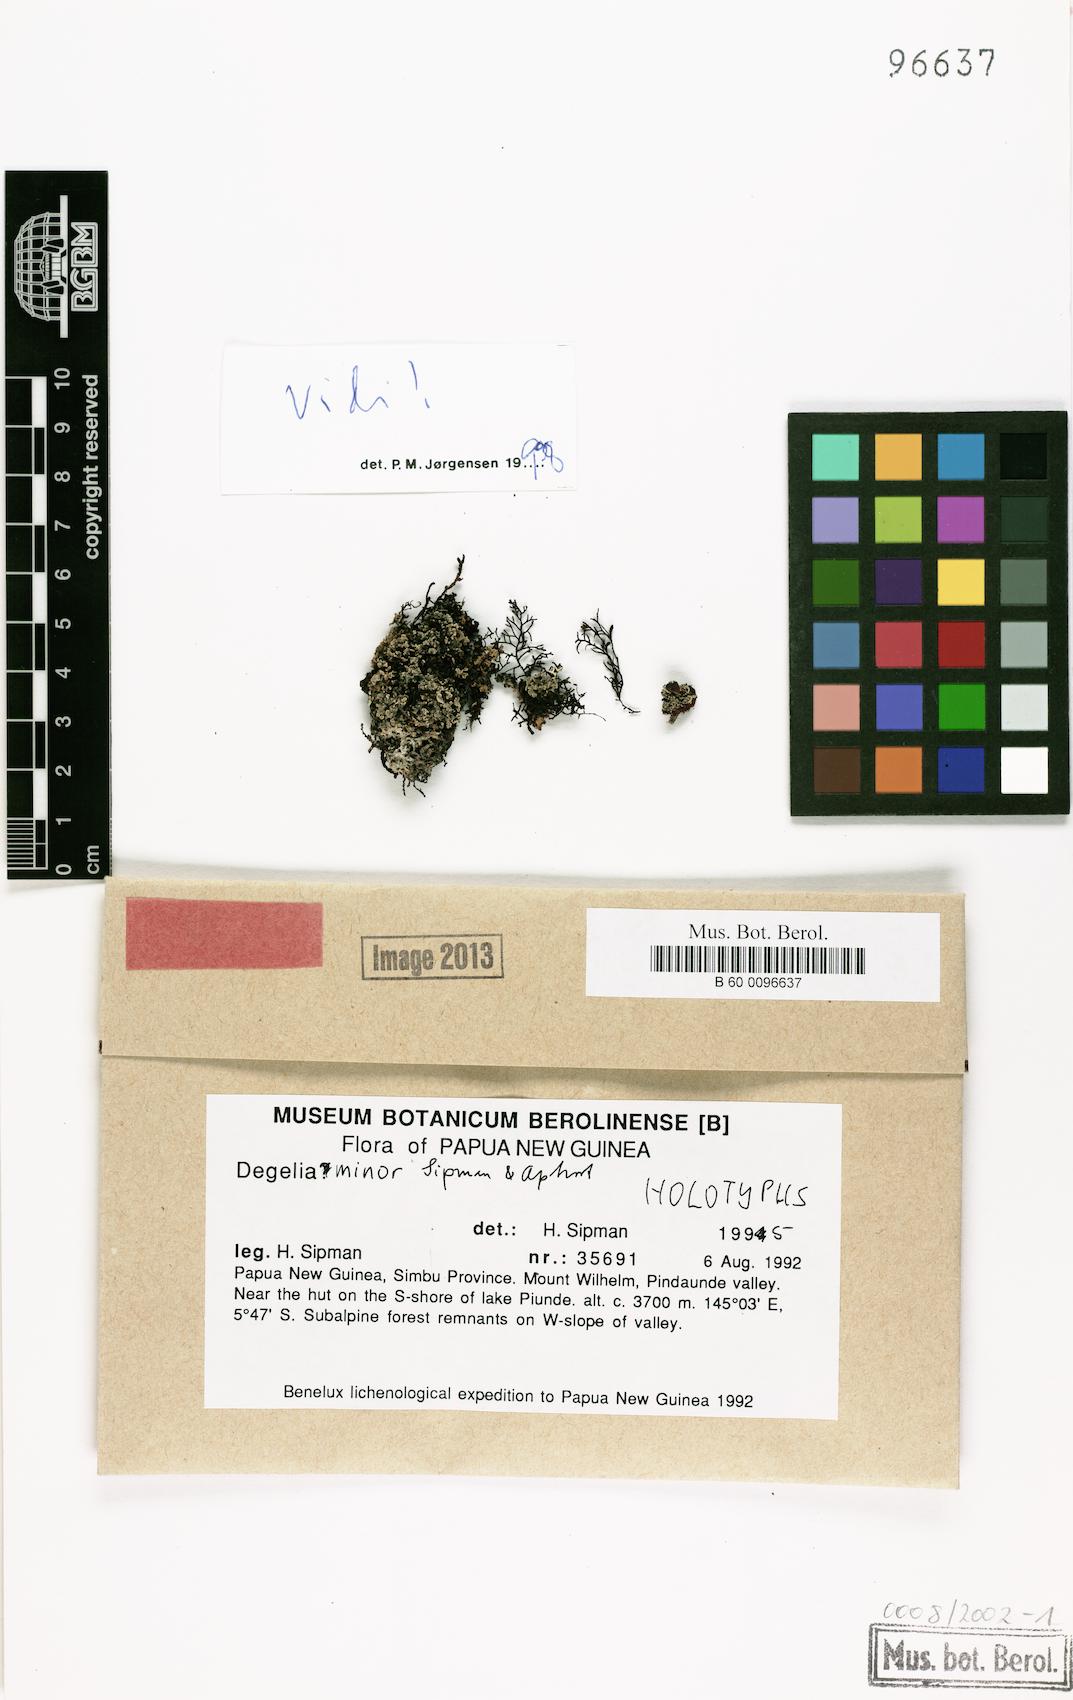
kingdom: Fungi
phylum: Ascomycota
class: Lecanoromycetes
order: Peltigerales
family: Pannariaceae
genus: Degelia
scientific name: Degelia minor
